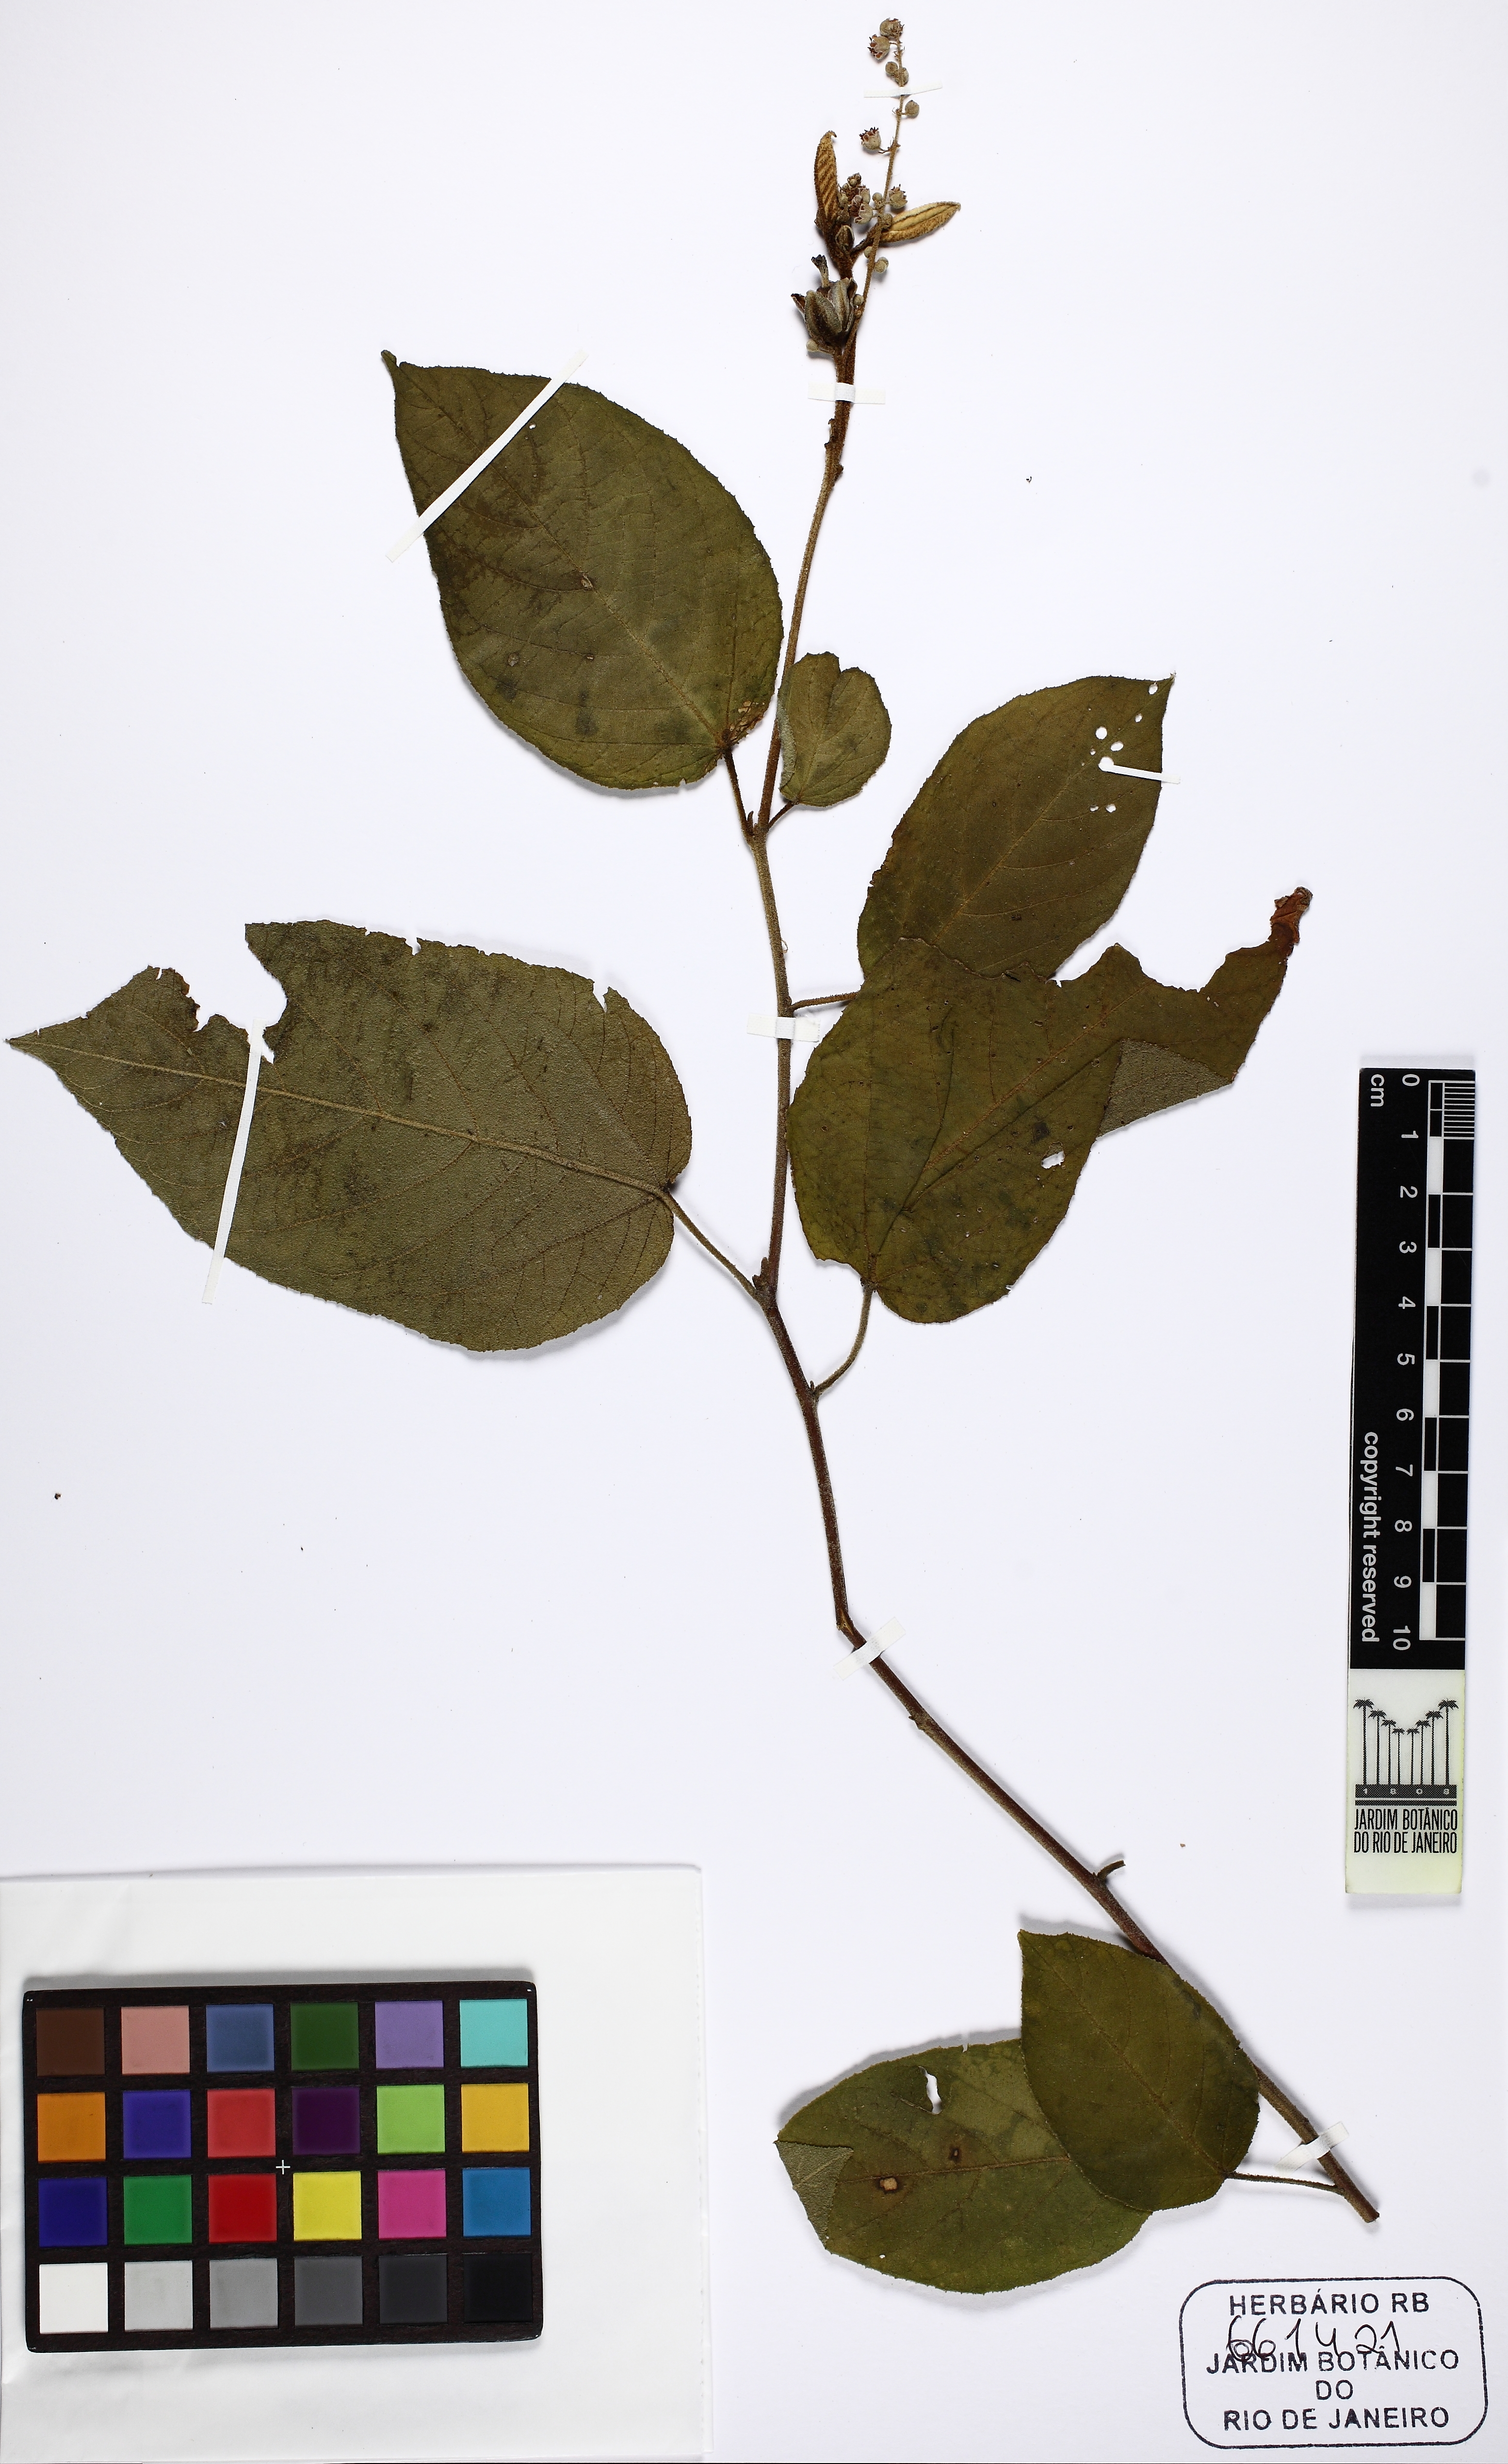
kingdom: Plantae
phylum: Tracheophyta
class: Magnoliopsida
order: Malpighiales
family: Euphorbiaceae
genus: Croton
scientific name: Croton heterocalyx
